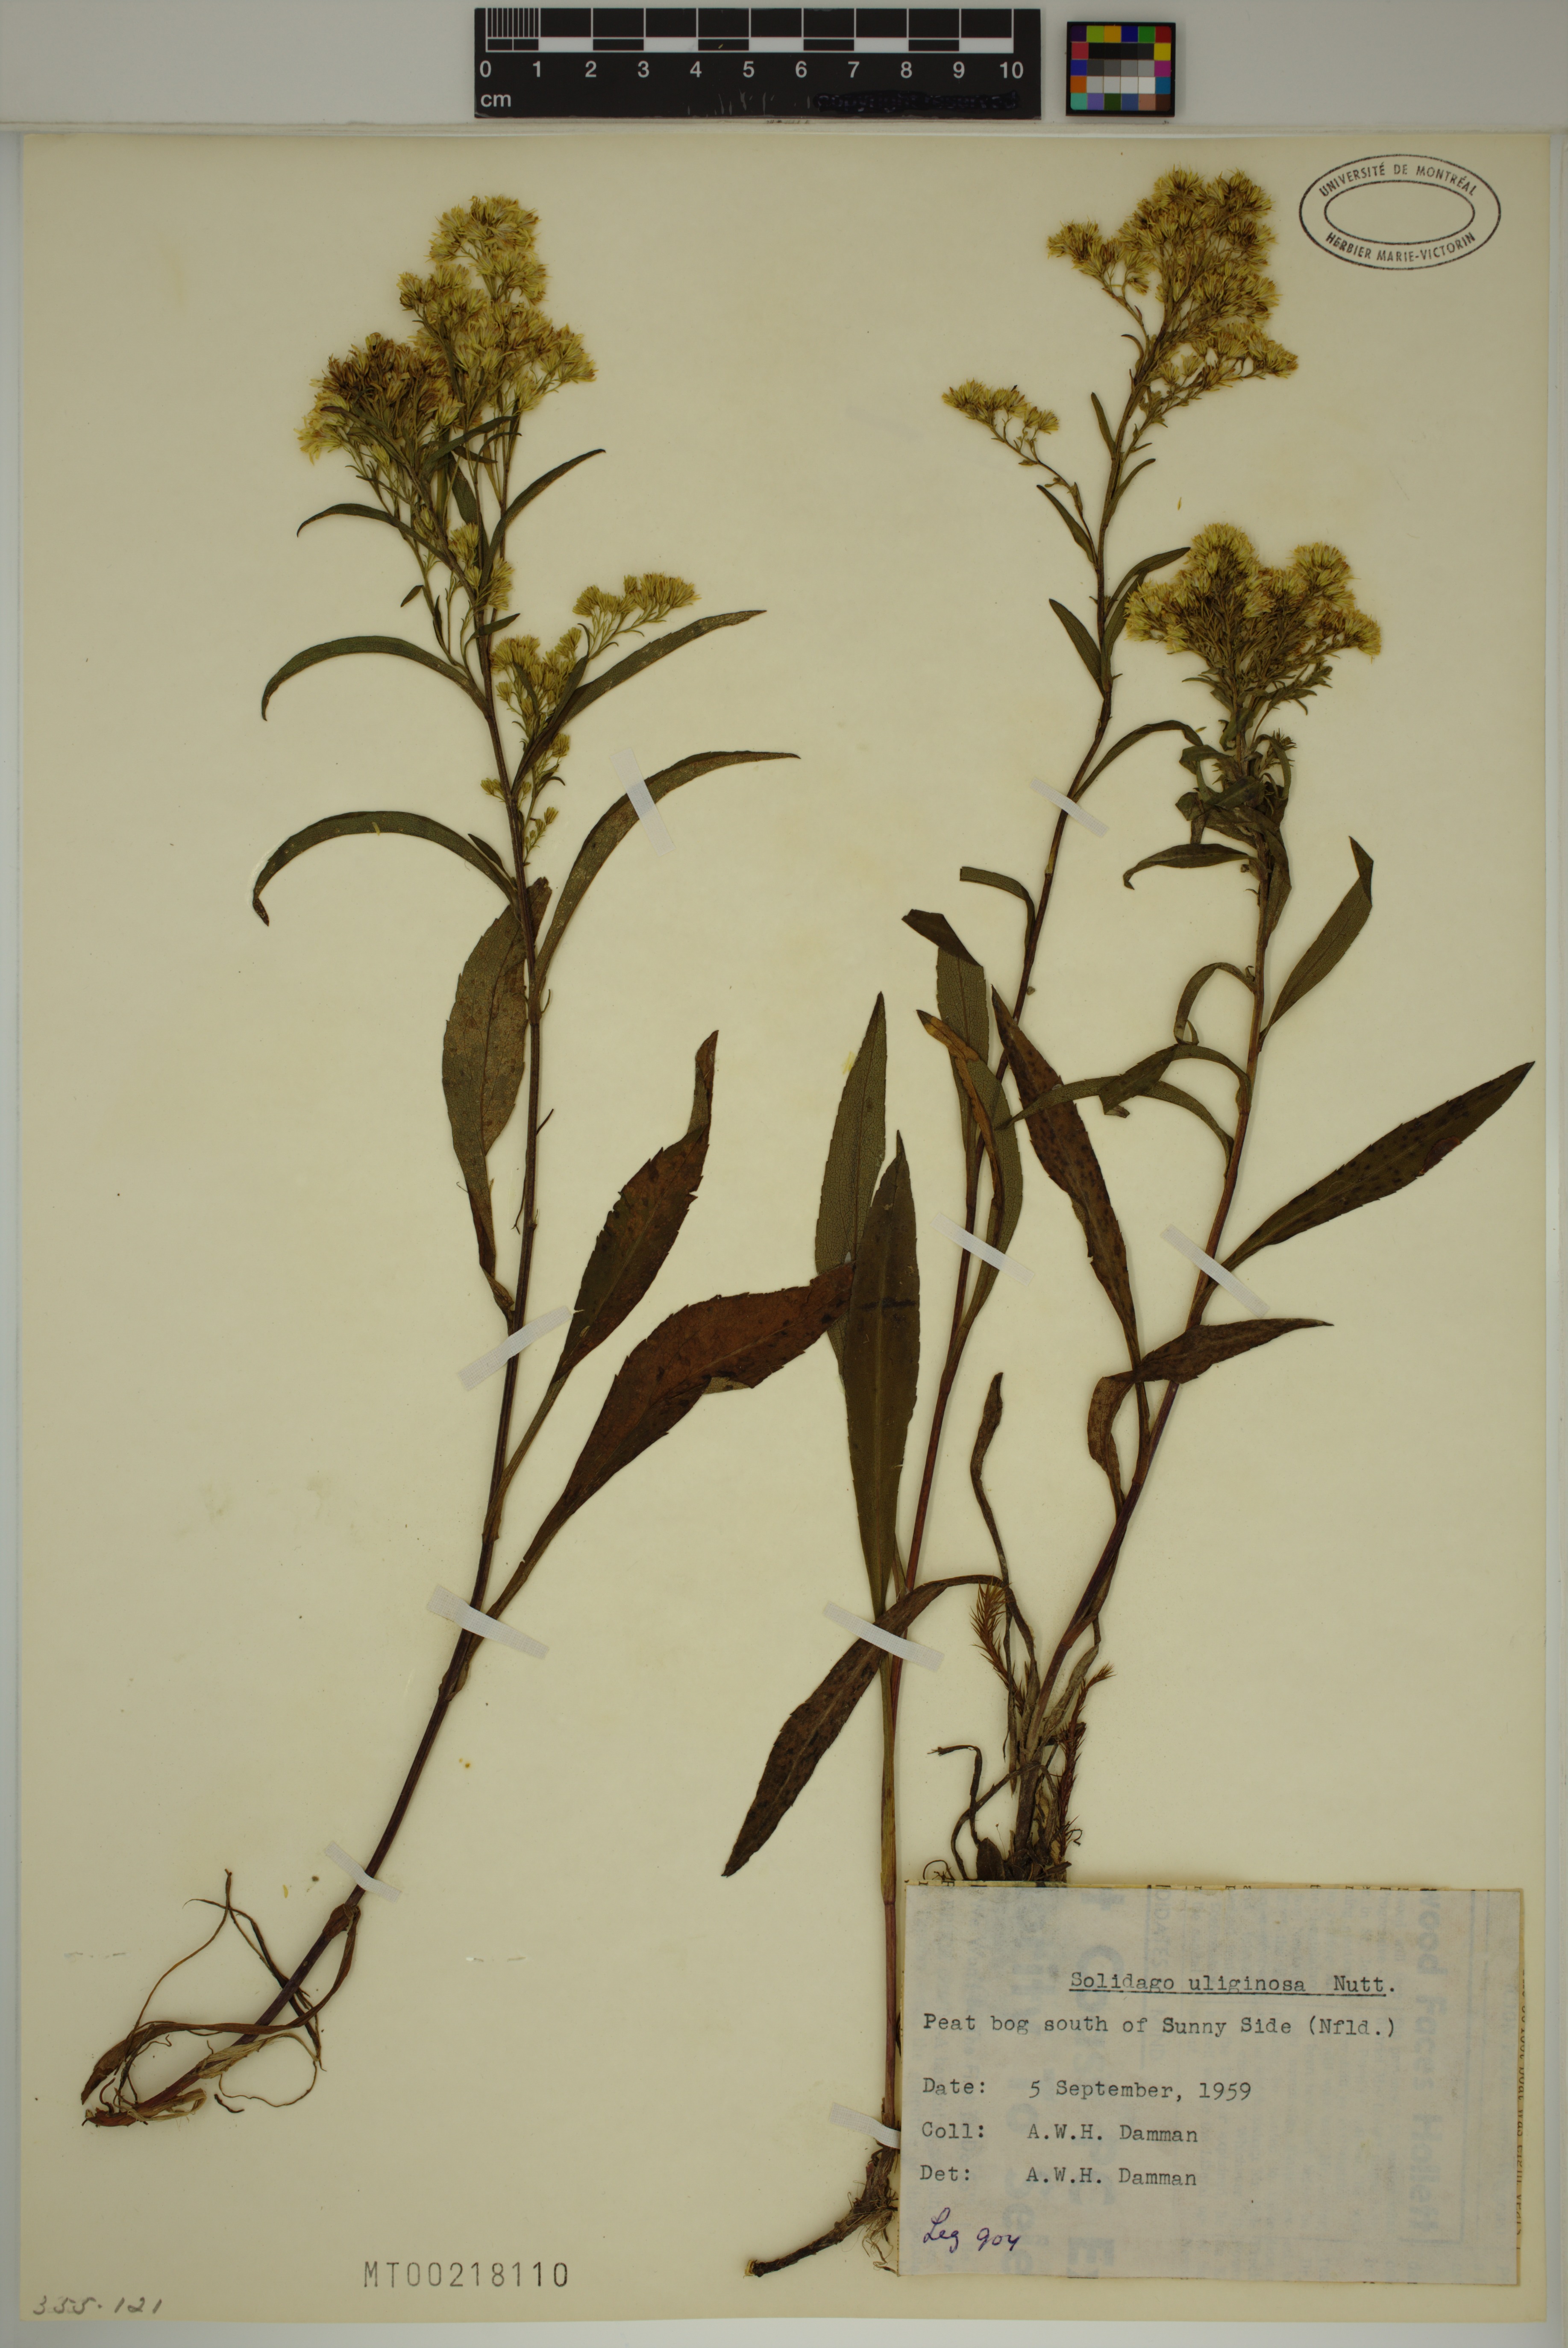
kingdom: Plantae
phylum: Tracheophyta
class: Magnoliopsida
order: Asterales
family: Asteraceae
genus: Solidago
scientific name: Solidago uliginosa
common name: Bog goldenrod
